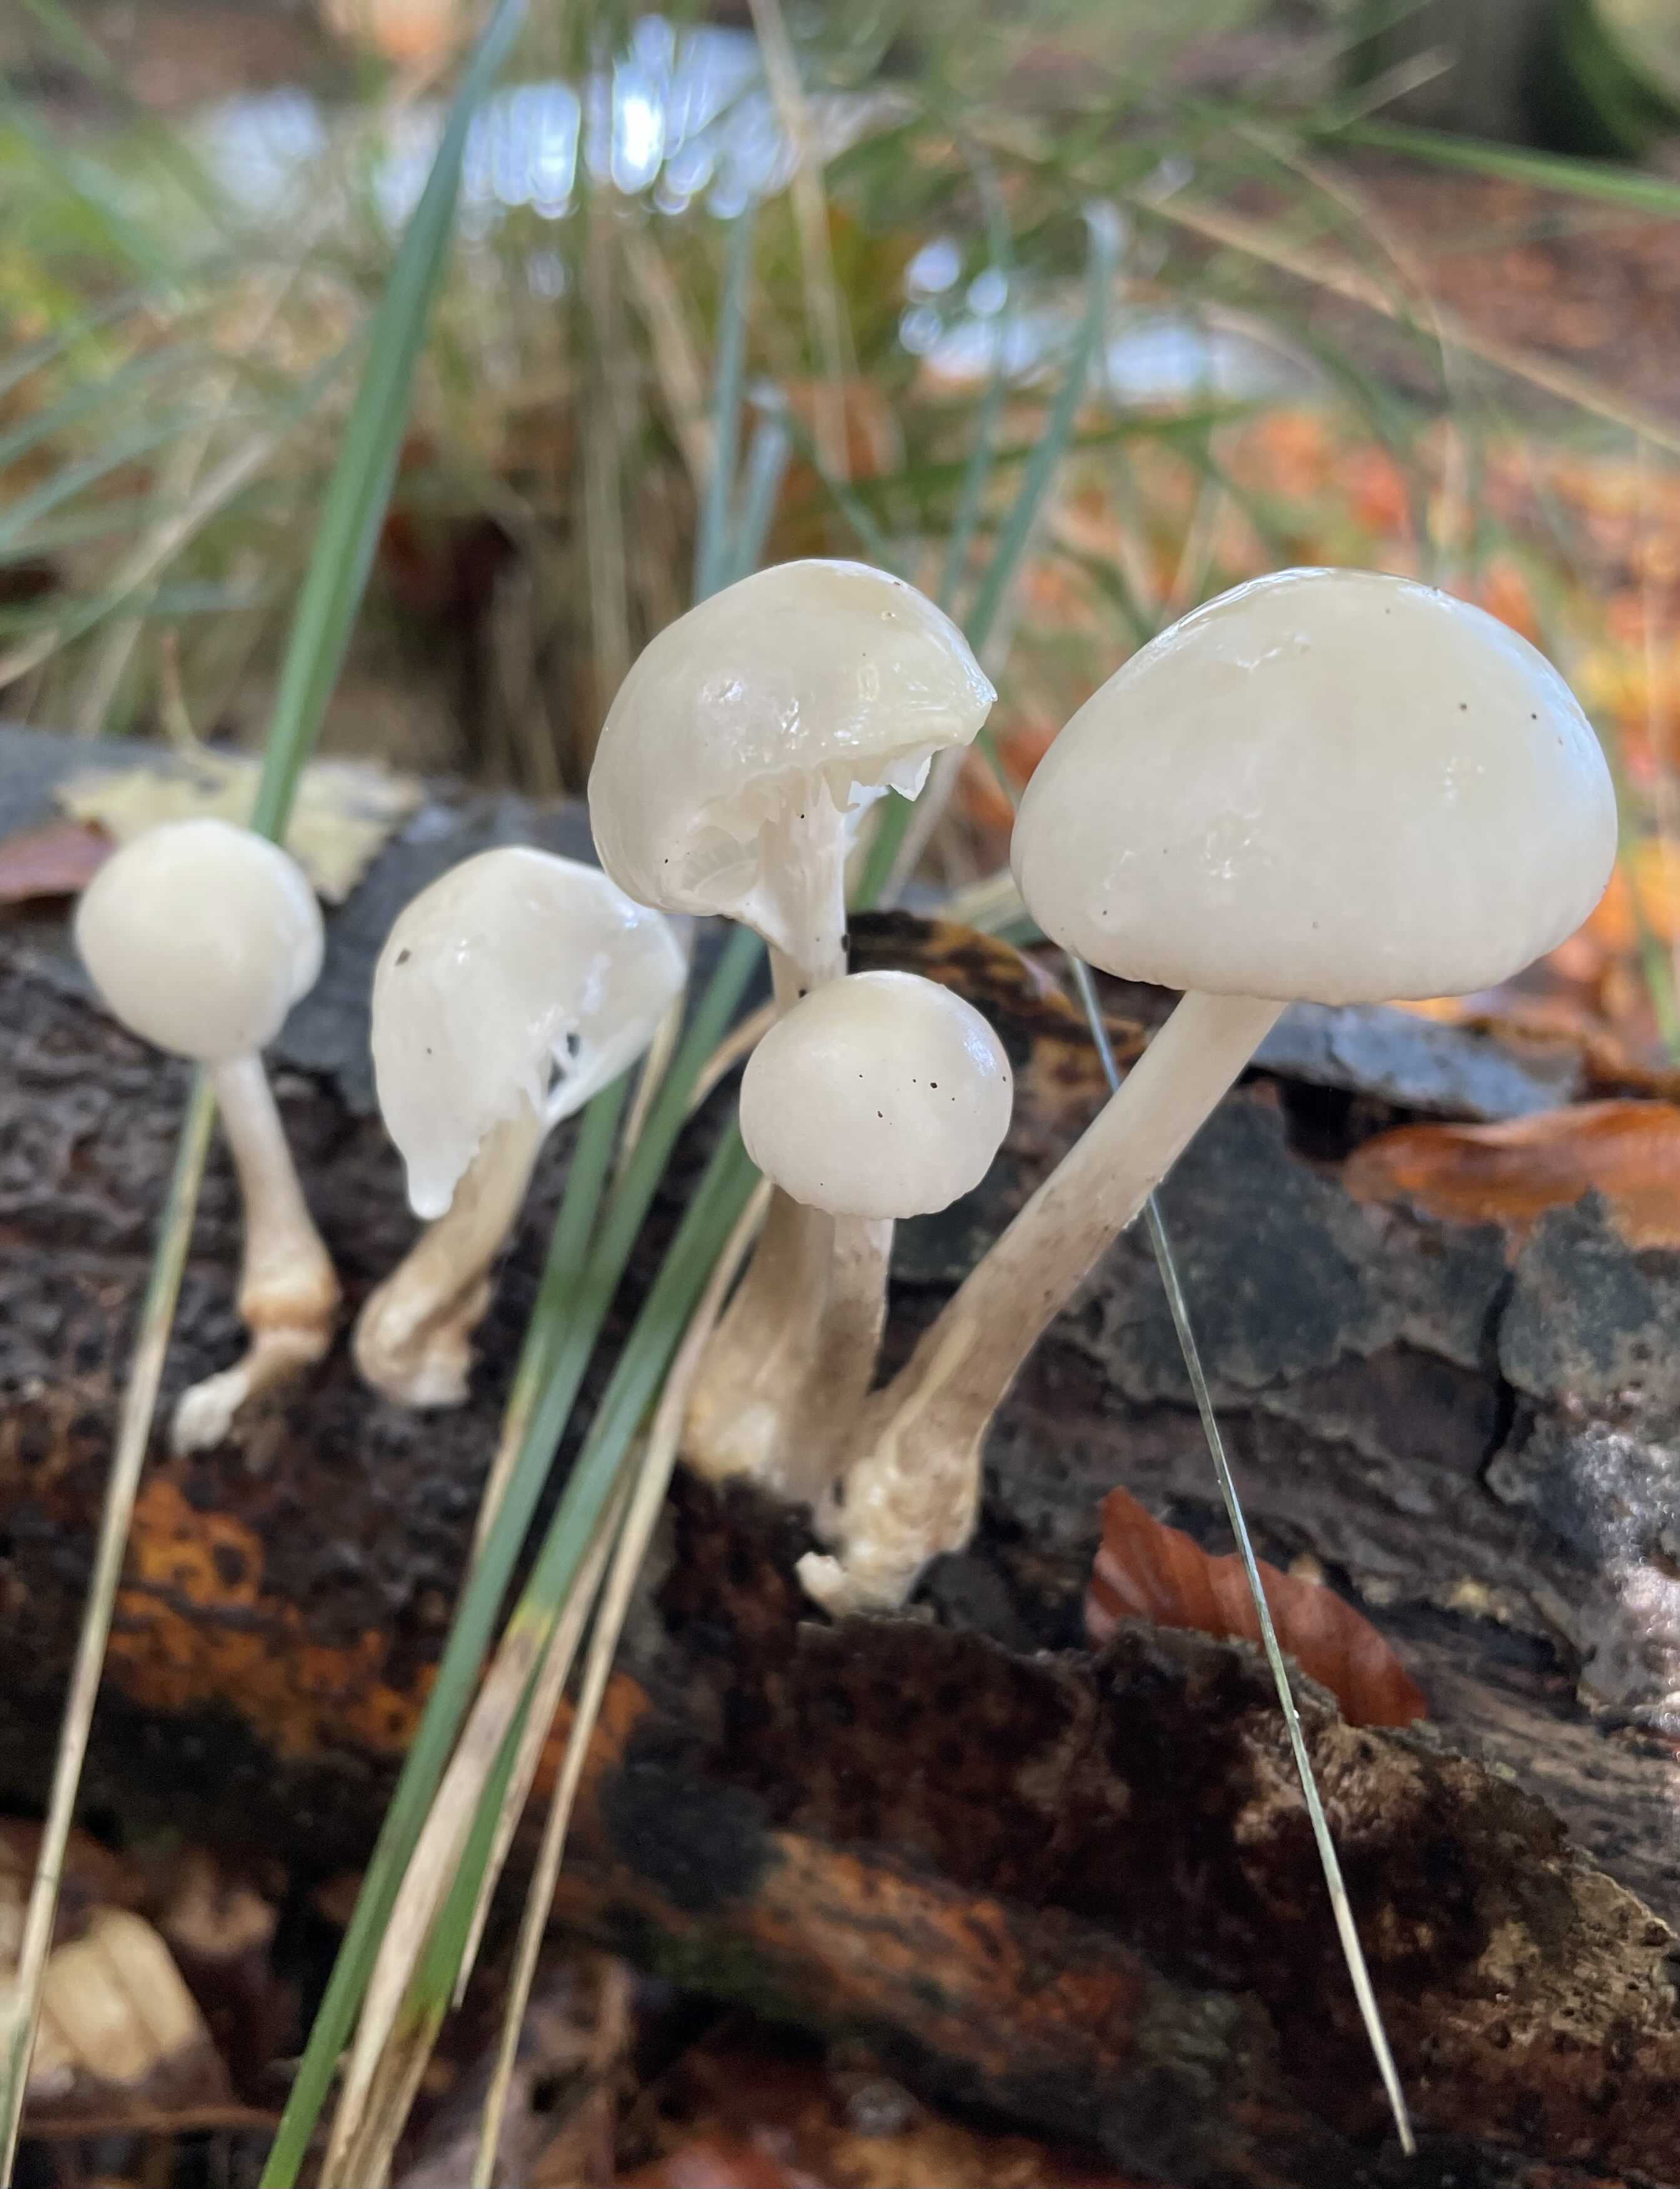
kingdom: Fungi
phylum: Basidiomycota
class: Agaricomycetes
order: Agaricales
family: Physalacriaceae
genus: Mucidula
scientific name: Mucidula mucida
